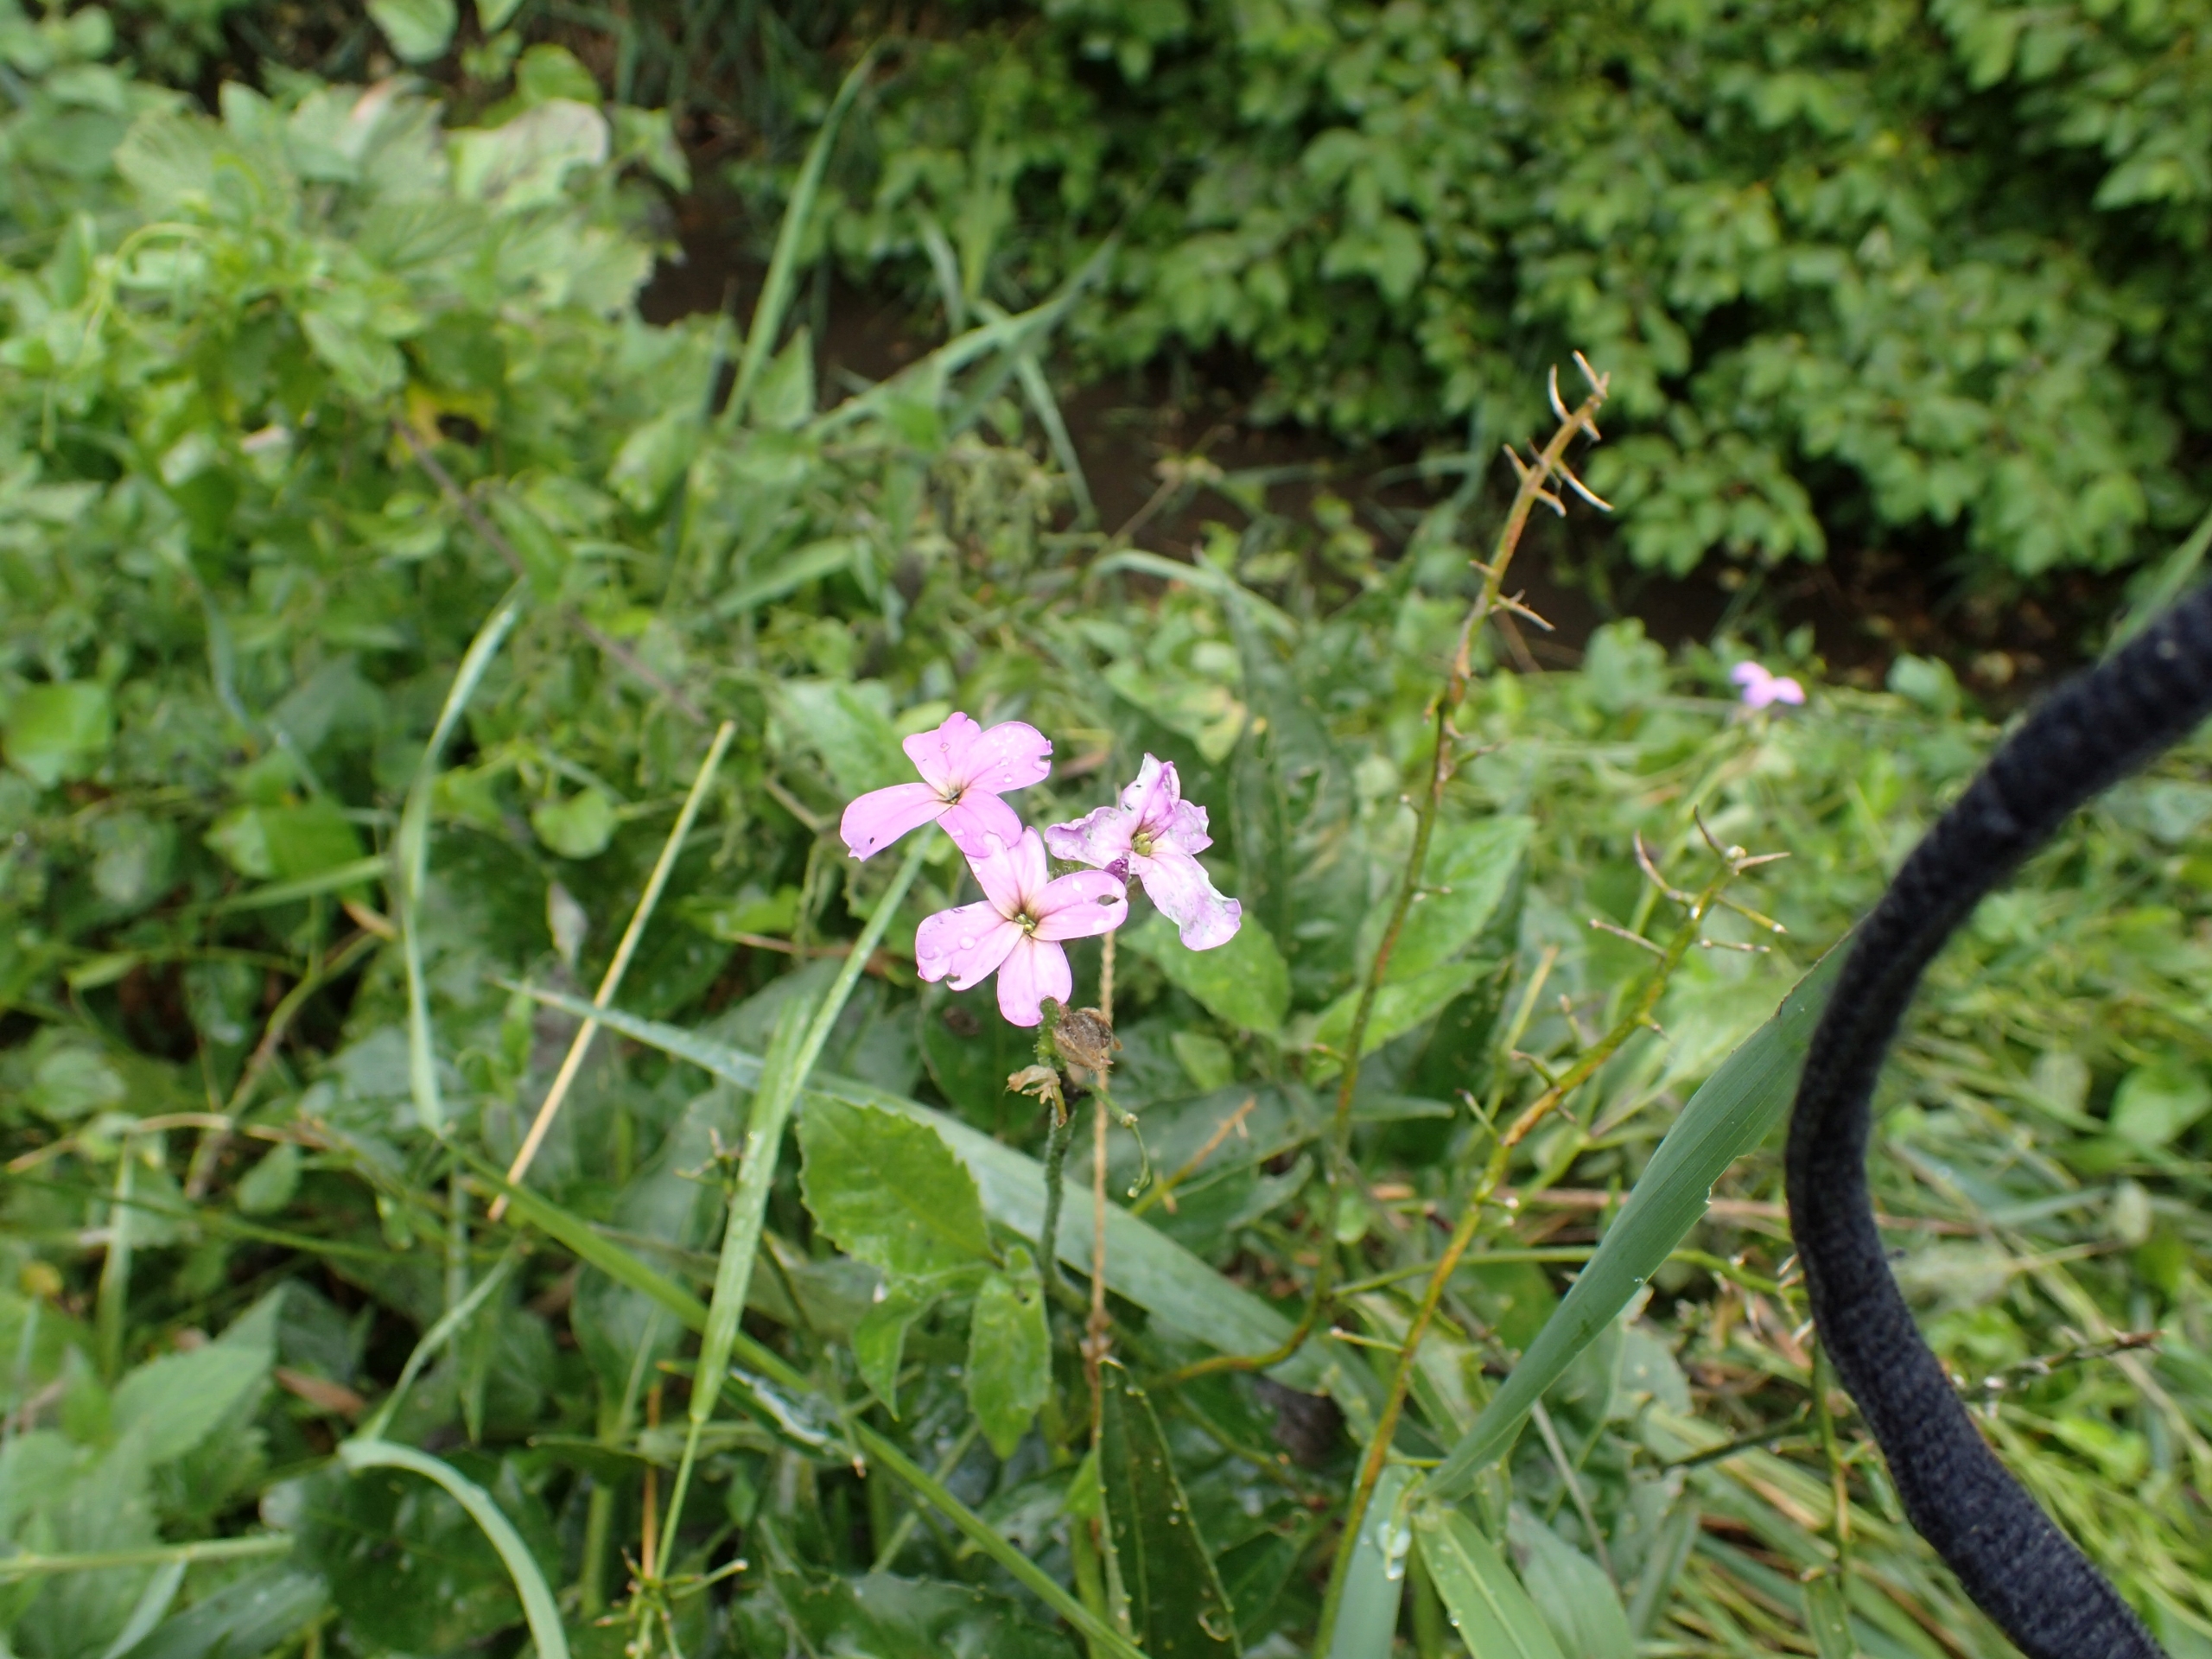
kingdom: Plantae
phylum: Tracheophyta
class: Magnoliopsida
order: Brassicales
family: Brassicaceae
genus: Hesperis
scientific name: Hesperis matronalis
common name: Aftenstjerne
